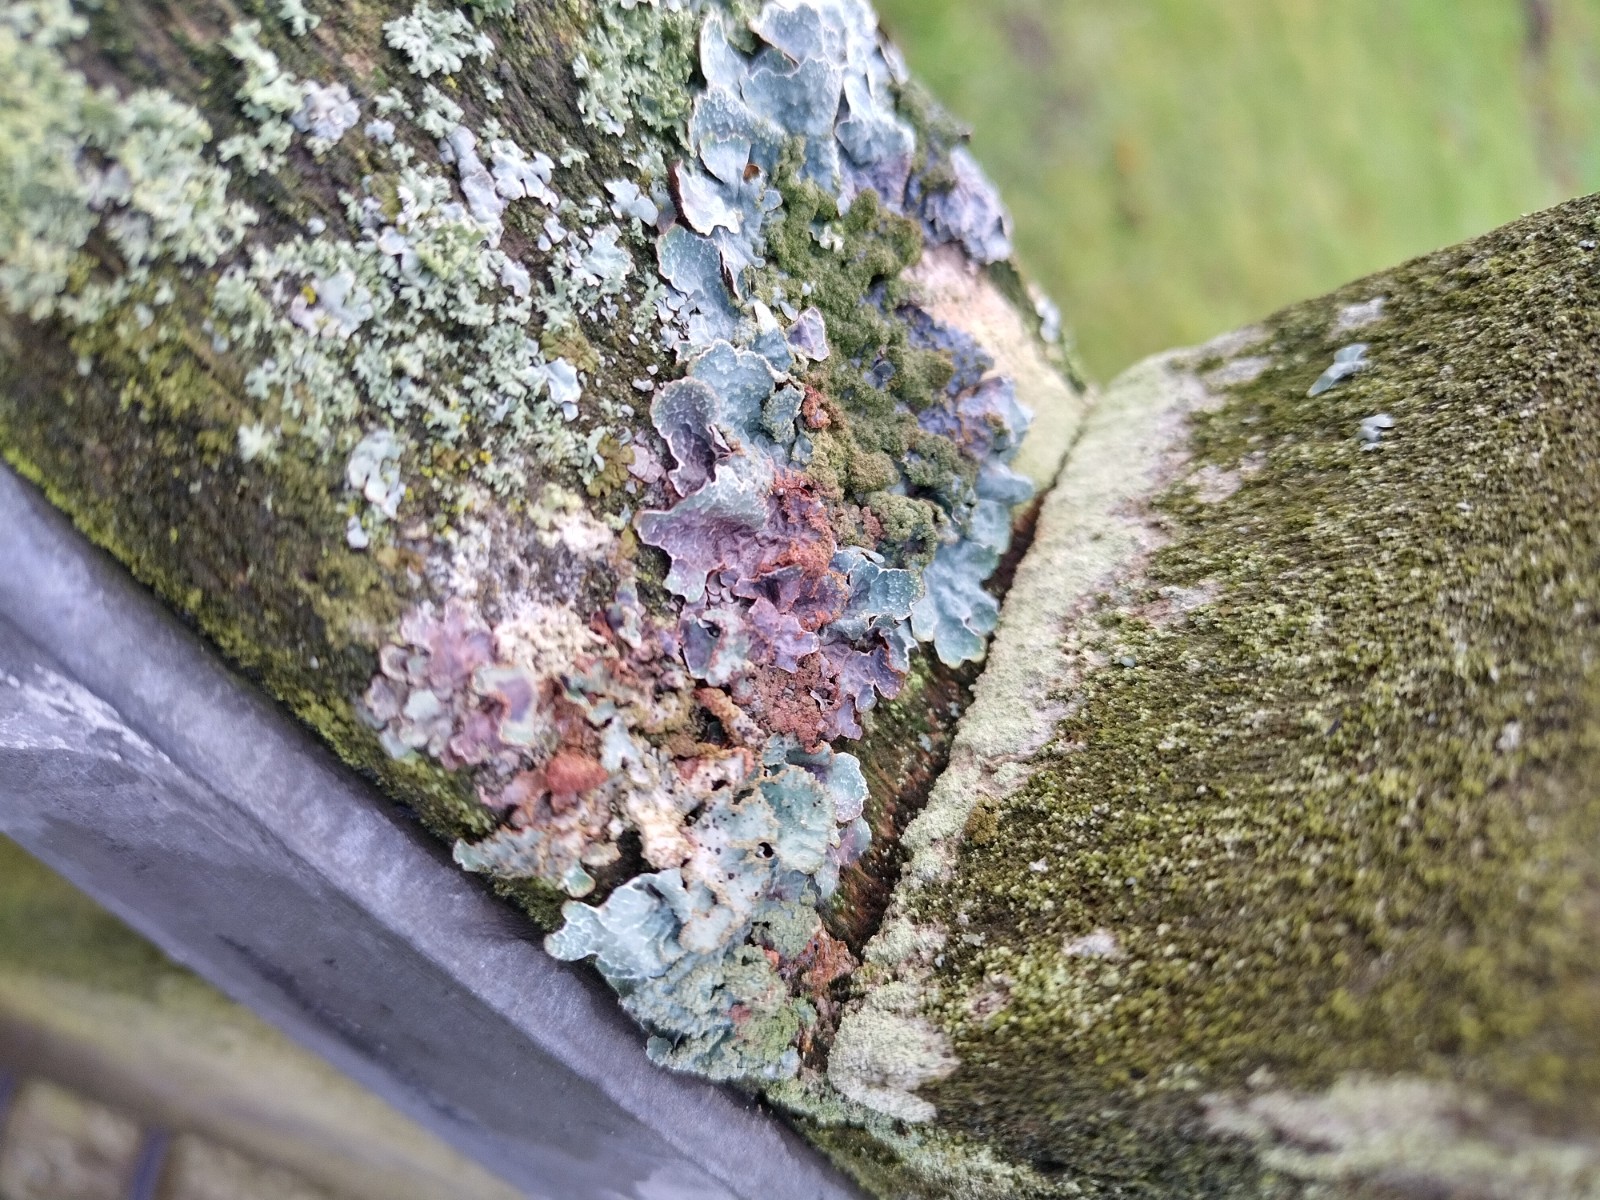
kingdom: Fungi
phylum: Ascomycota
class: Lecanoromycetes
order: Lecanorales
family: Parmeliaceae
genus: Parmelia
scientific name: Parmelia sulcata
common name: rynket skållav
